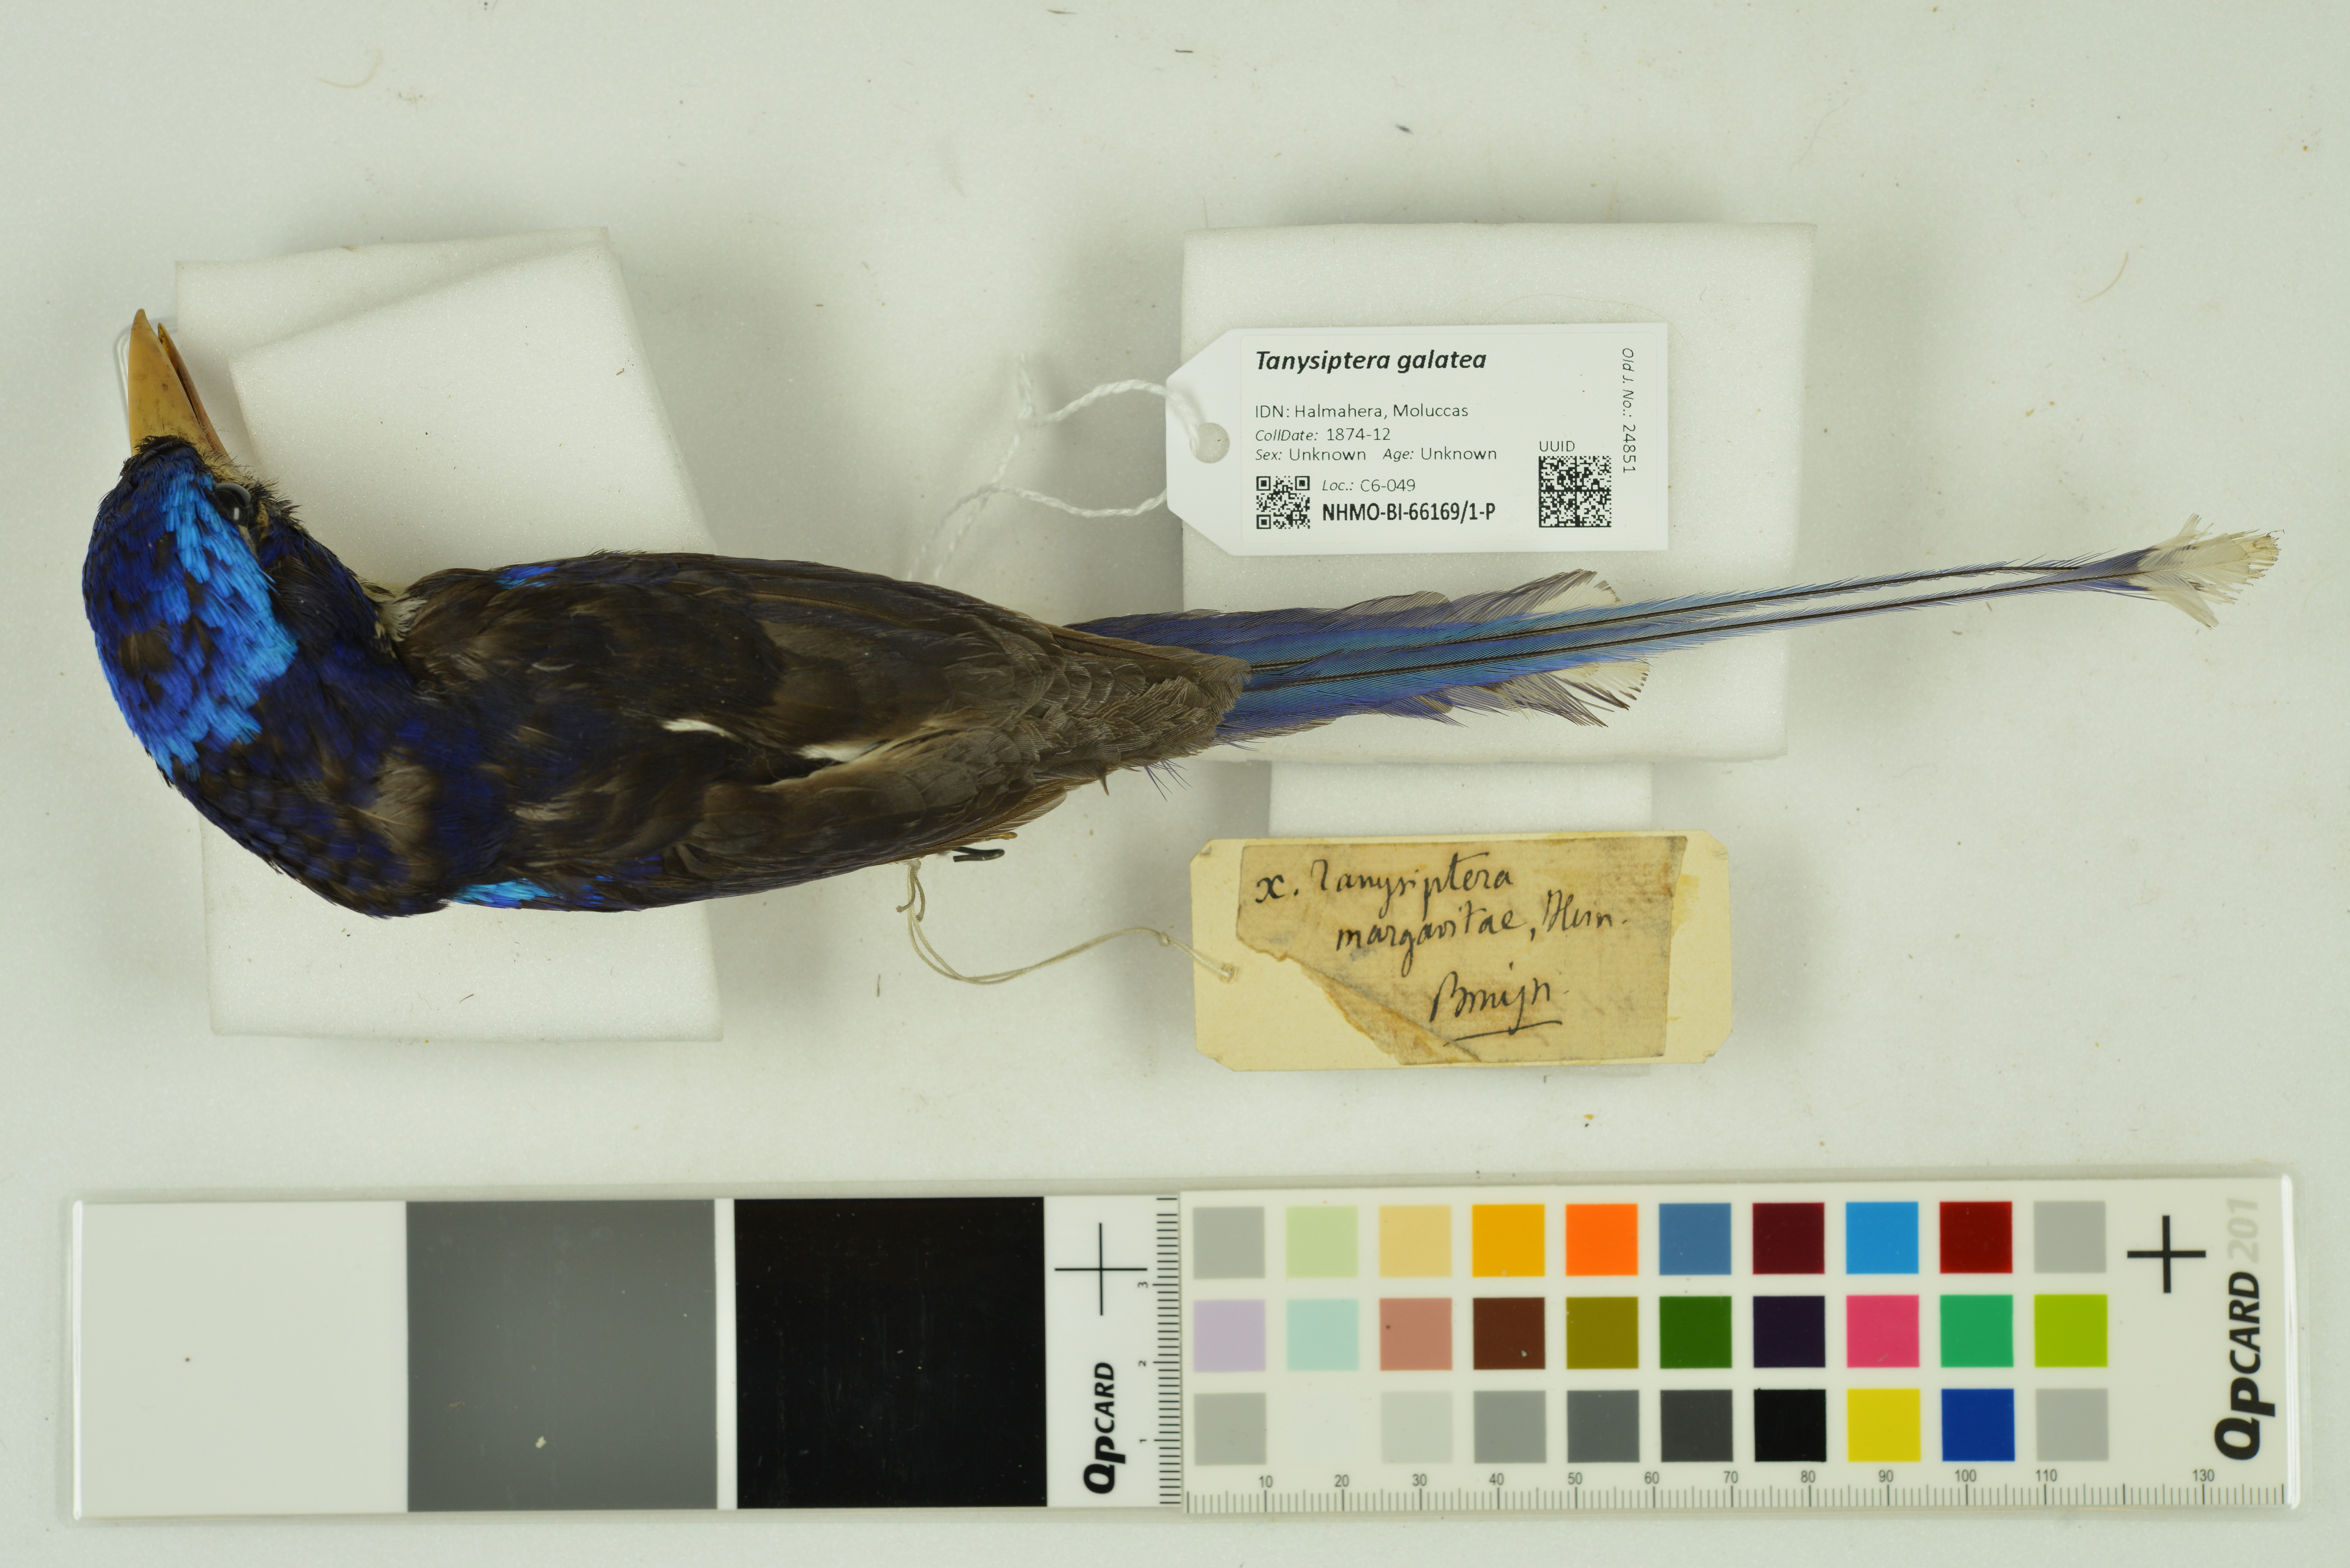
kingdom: Animalia
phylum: Chordata
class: Aves
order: Coraciiformes
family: Alcedinidae
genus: Tanysiptera
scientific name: Tanysiptera galatea
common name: Common paradise-kingfisher
